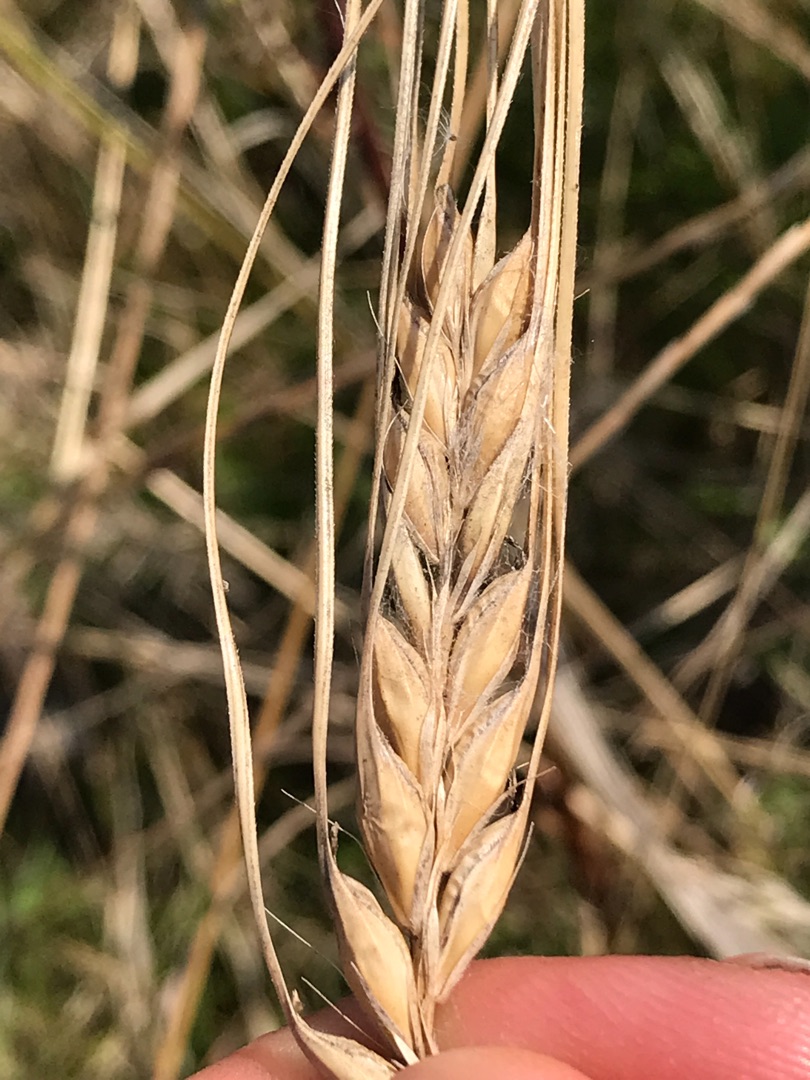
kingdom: Plantae
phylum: Tracheophyta
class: Liliopsida
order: Poales
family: Poaceae
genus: Hordeum
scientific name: Hordeum vulgare
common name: Almindelig byg
